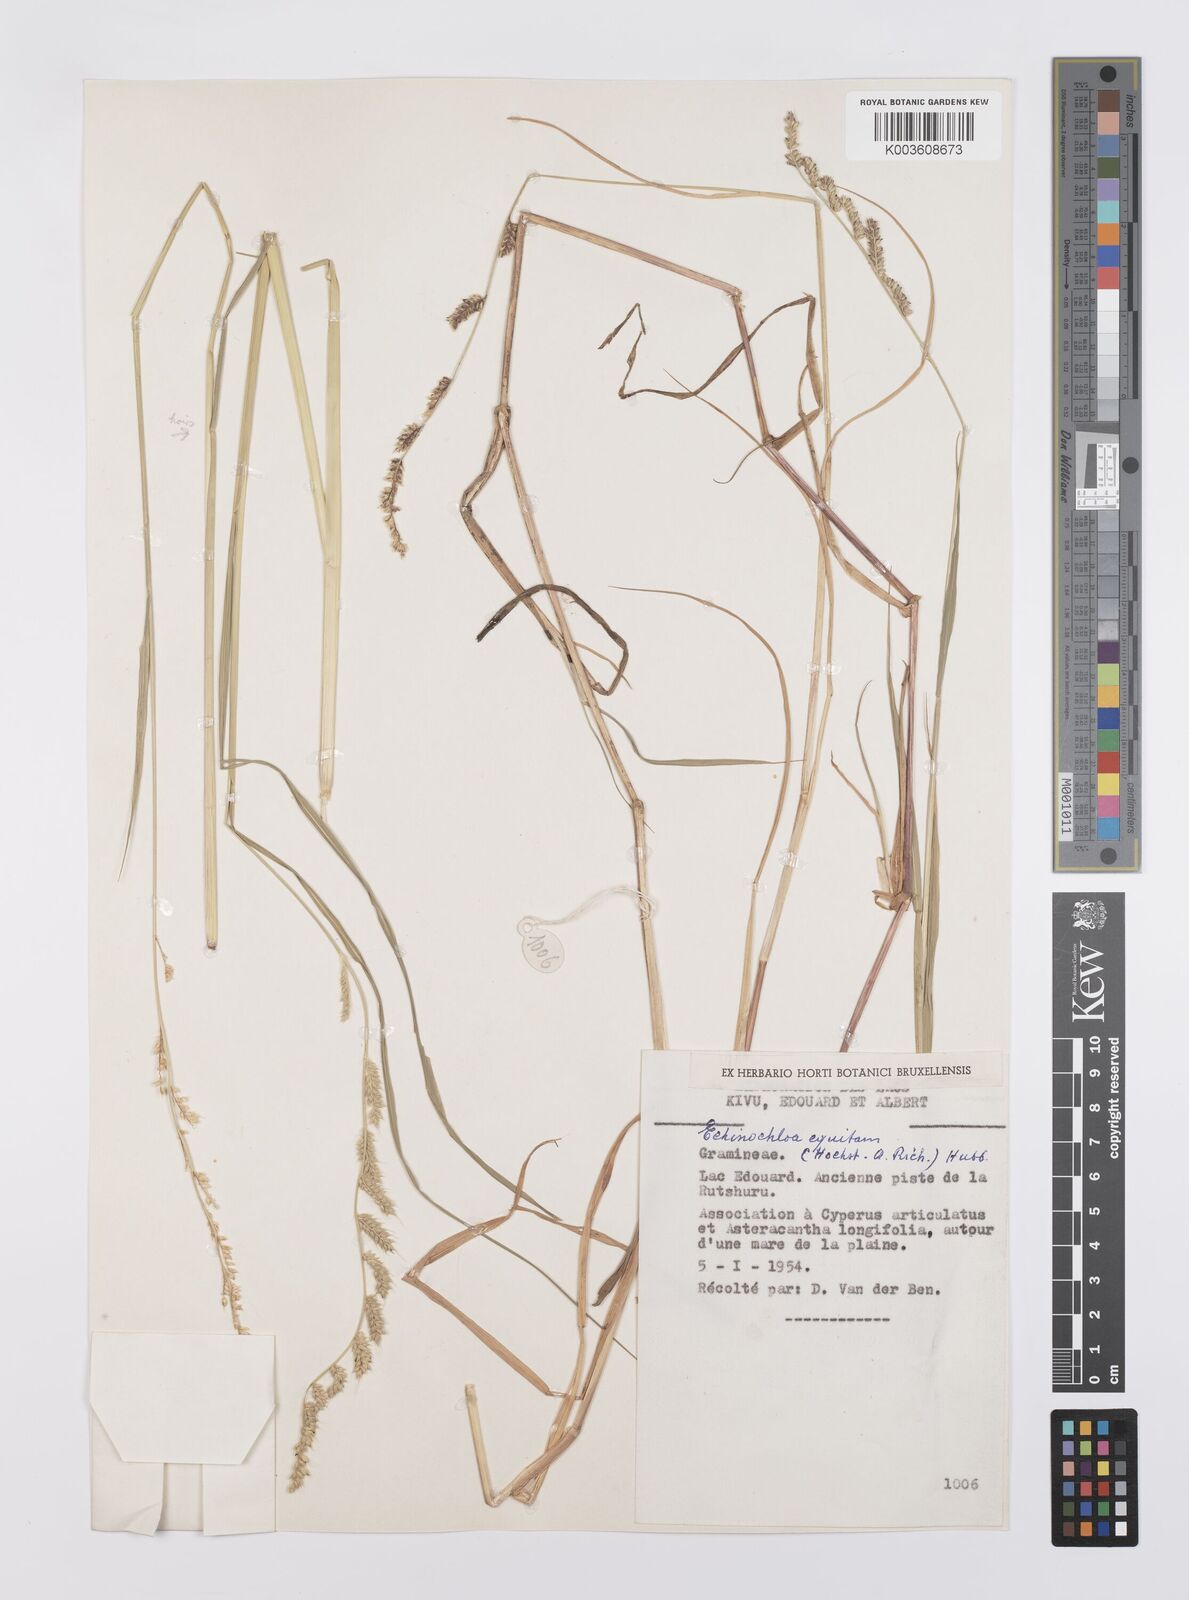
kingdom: Plantae
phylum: Tracheophyta
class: Liliopsida
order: Poales
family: Poaceae
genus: Echinochloa
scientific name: Echinochloa haploclada
